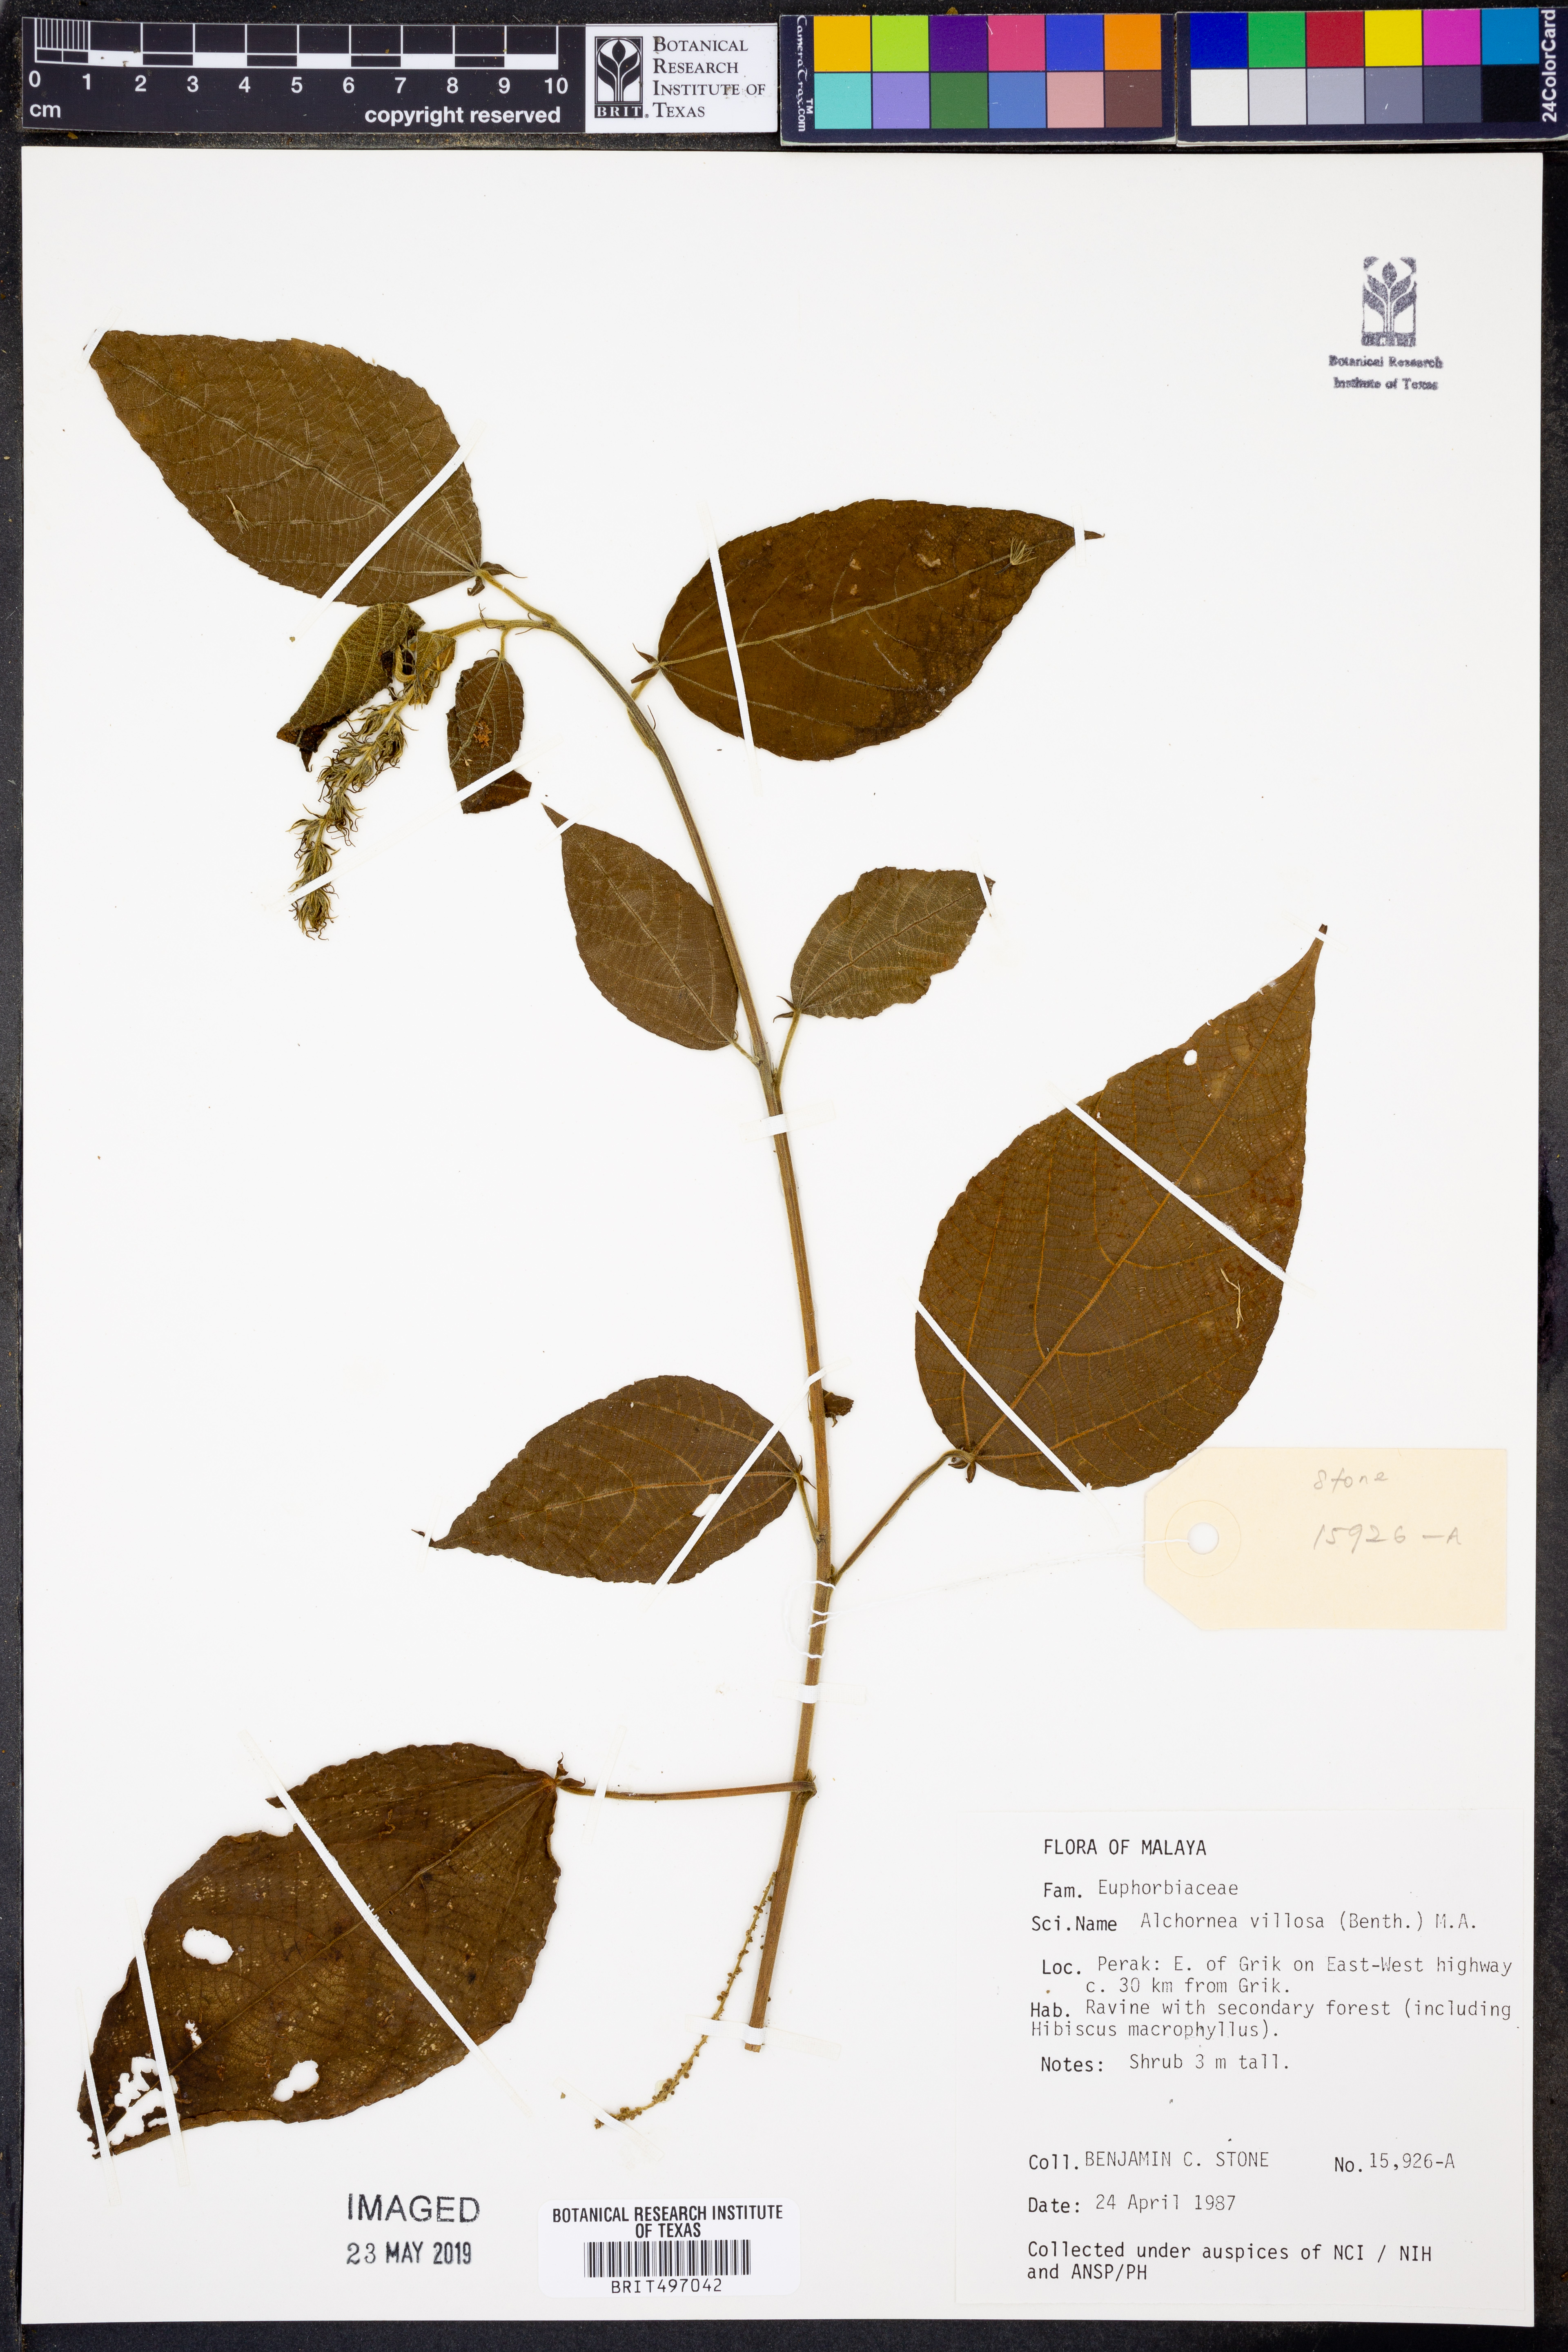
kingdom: Plantae
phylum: Tracheophyta
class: Magnoliopsida
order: Malpighiales
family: Euphorbiaceae
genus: Alchornea
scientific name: Alchornea tiliifolia
